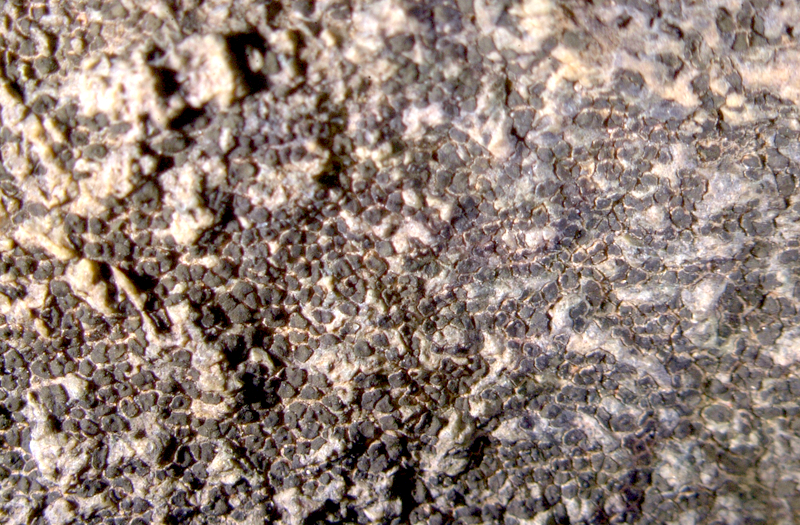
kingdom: Fungi
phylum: Ascomycota
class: Lecanoromycetes
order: Acarosporales
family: Acarosporaceae
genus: Acarospora
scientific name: Acarospora
